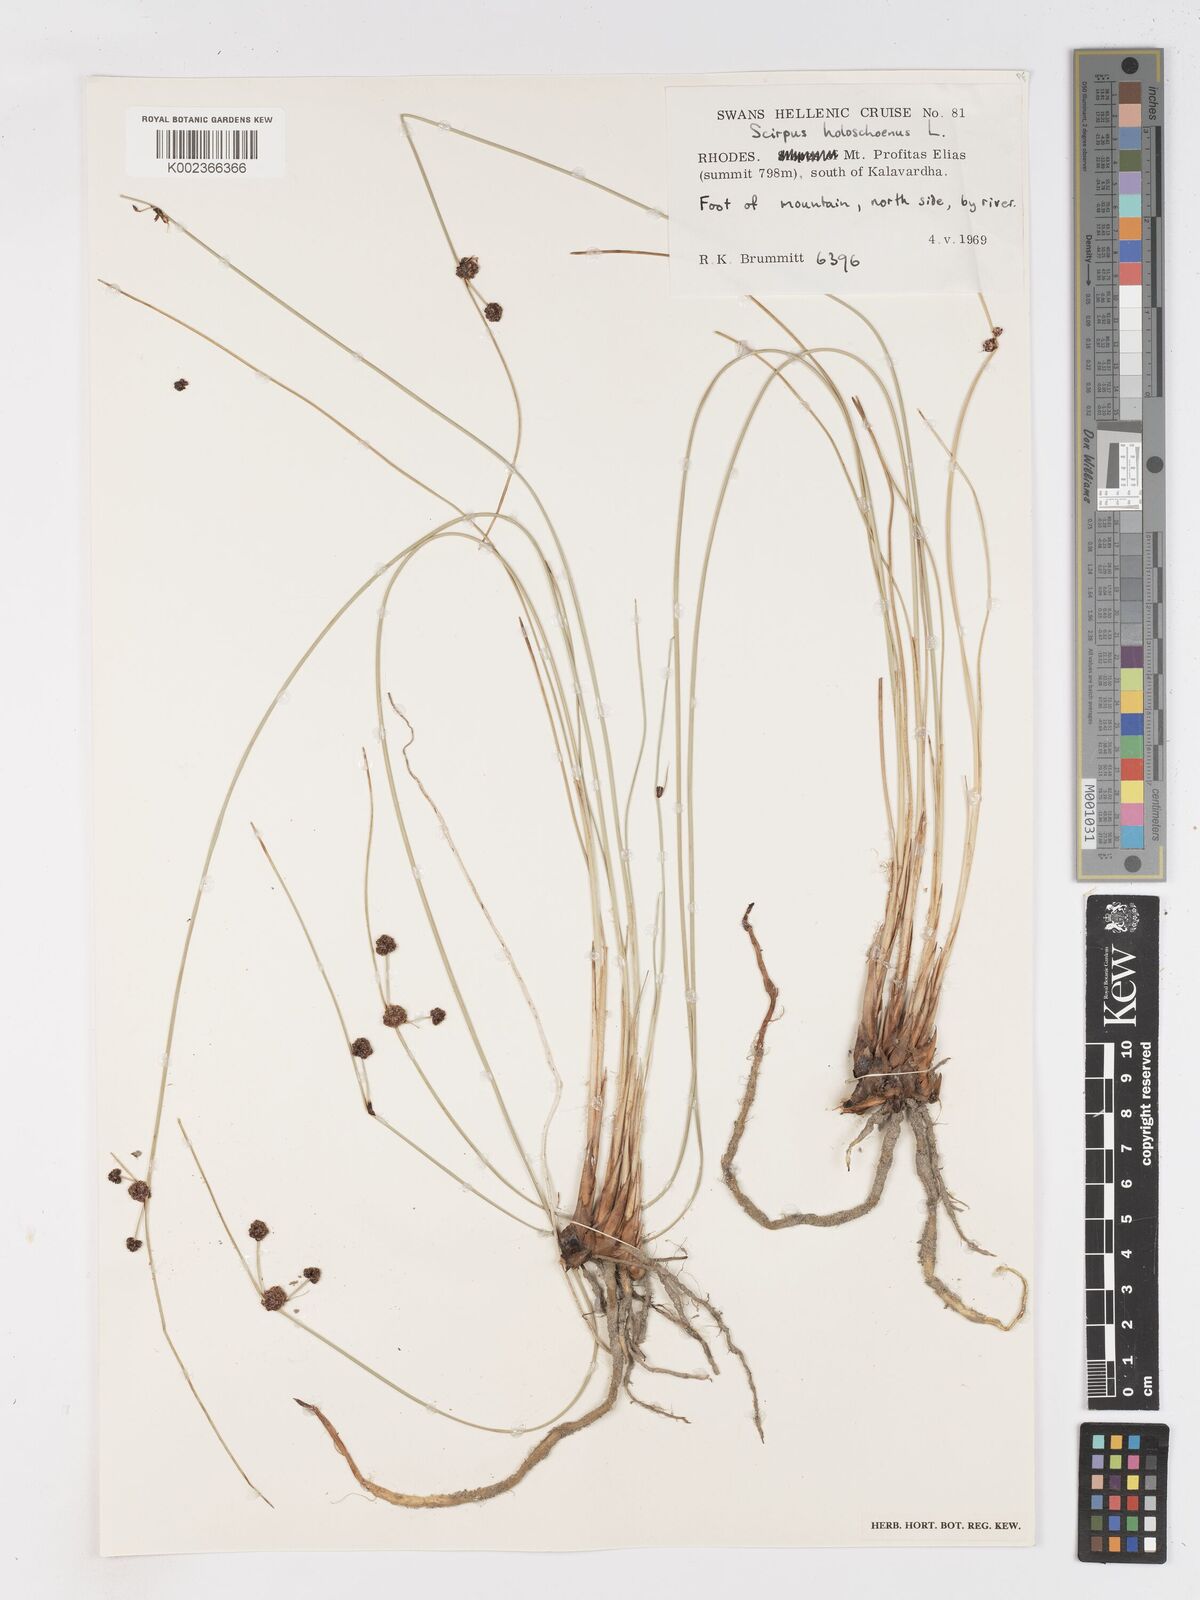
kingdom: Plantae
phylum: Tracheophyta
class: Liliopsida
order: Poales
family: Cyperaceae
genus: Scirpoides
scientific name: Scirpoides holoschoenus
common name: Round-headed club-rush
